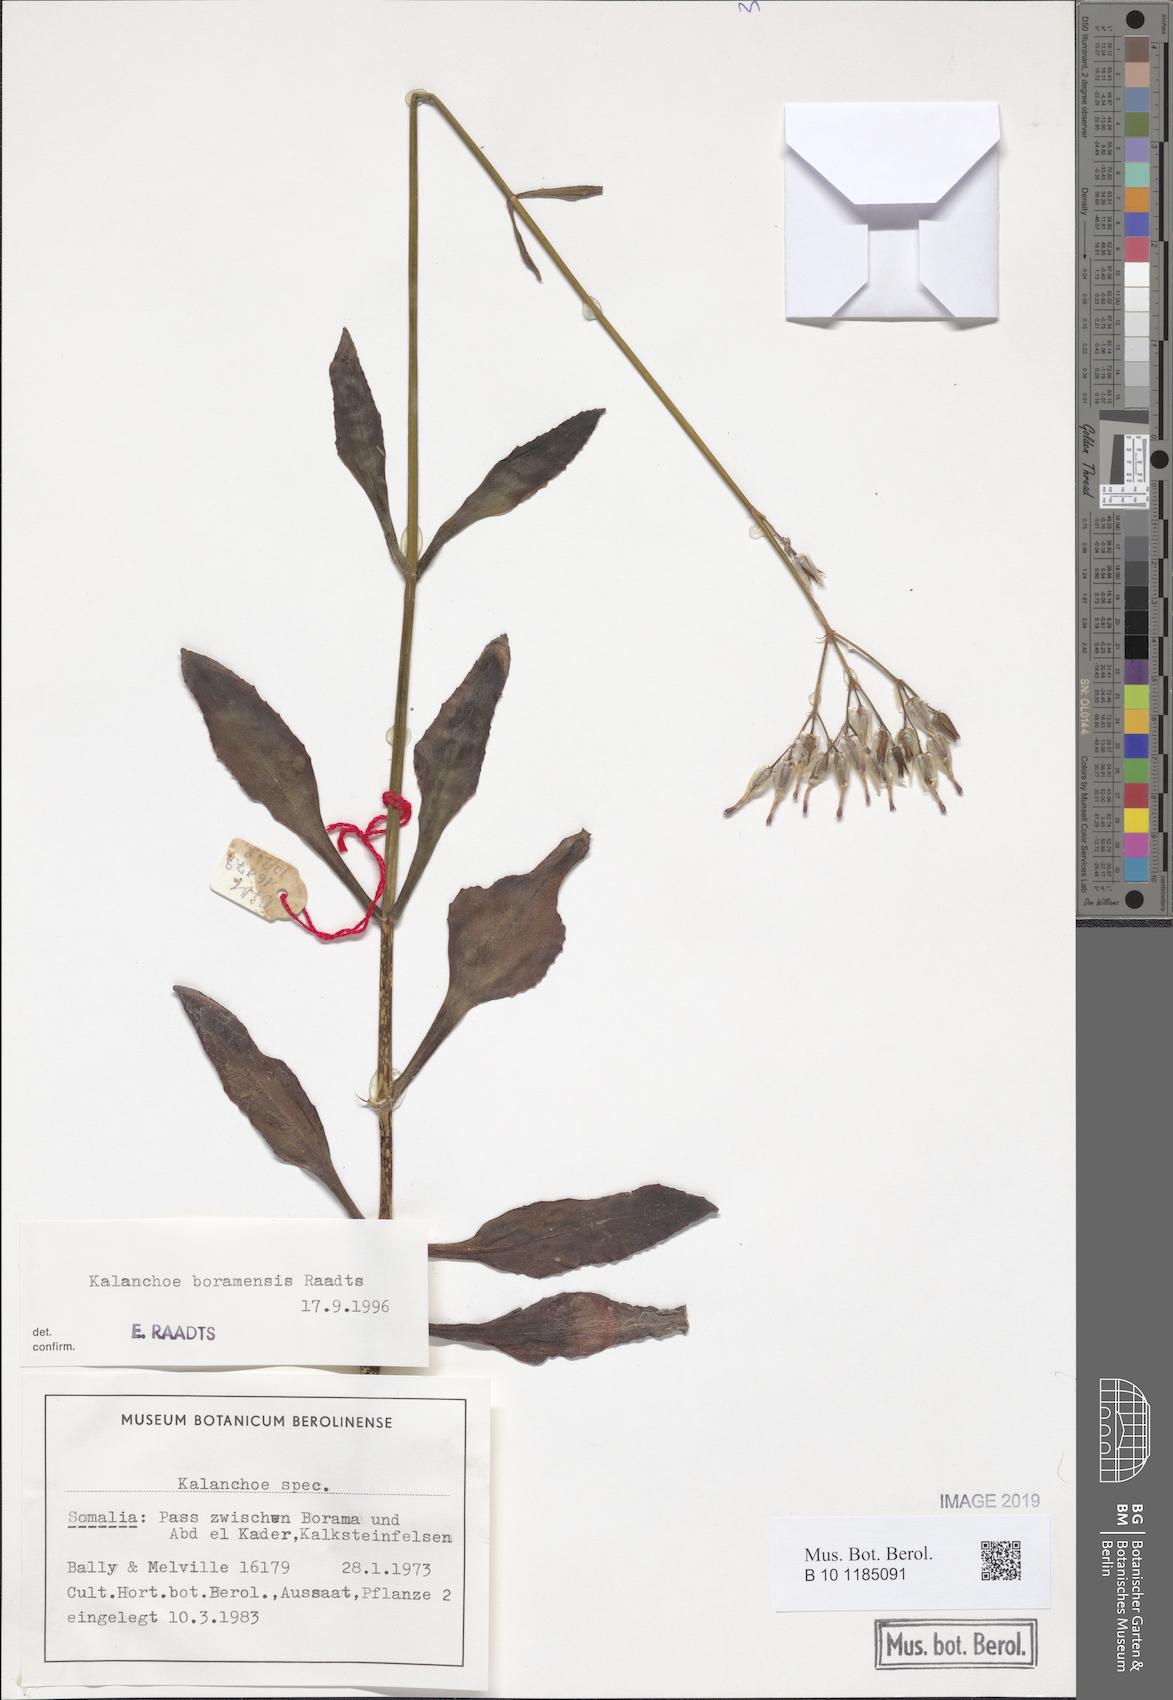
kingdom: Plantae
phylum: Tracheophyta
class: Magnoliopsida
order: Saxifragales
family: Crassulaceae
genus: Kalanchoe
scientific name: Kalanchoe
